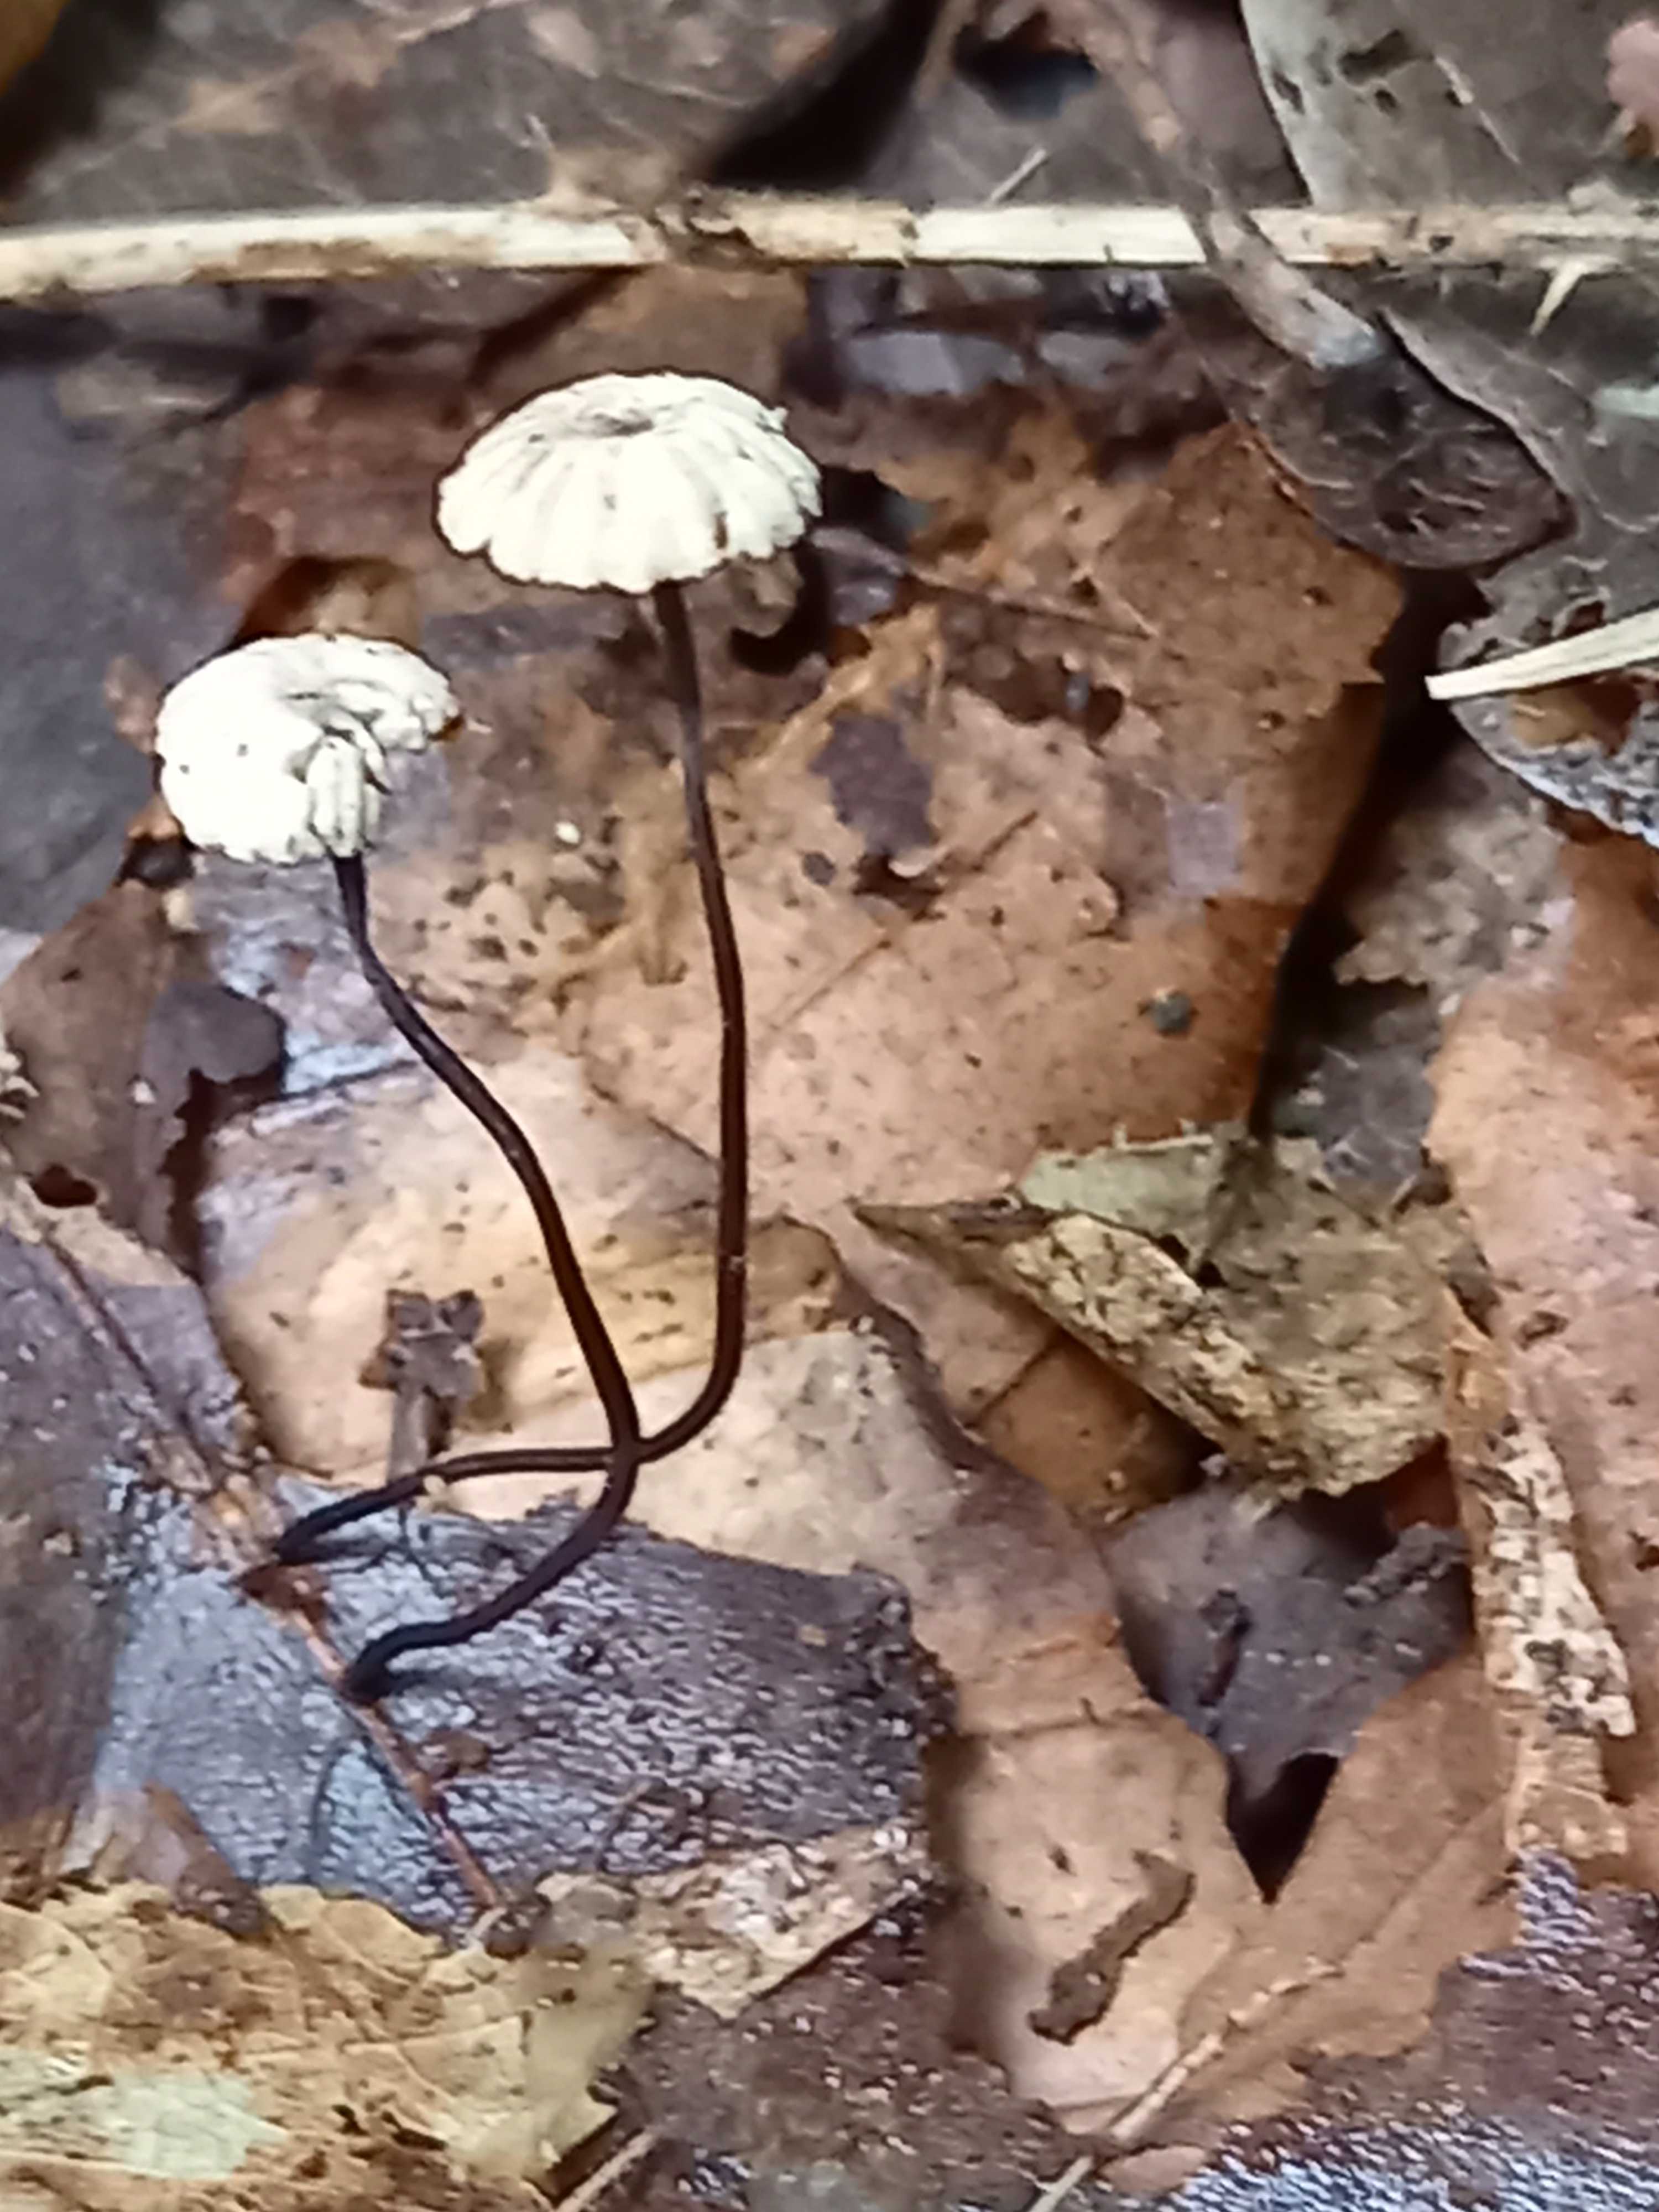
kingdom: Fungi
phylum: Basidiomycota
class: Agaricomycetes
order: Agaricales
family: Marasmiaceae
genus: Marasmius
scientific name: Marasmius rotula
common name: hjul-bruskhat
